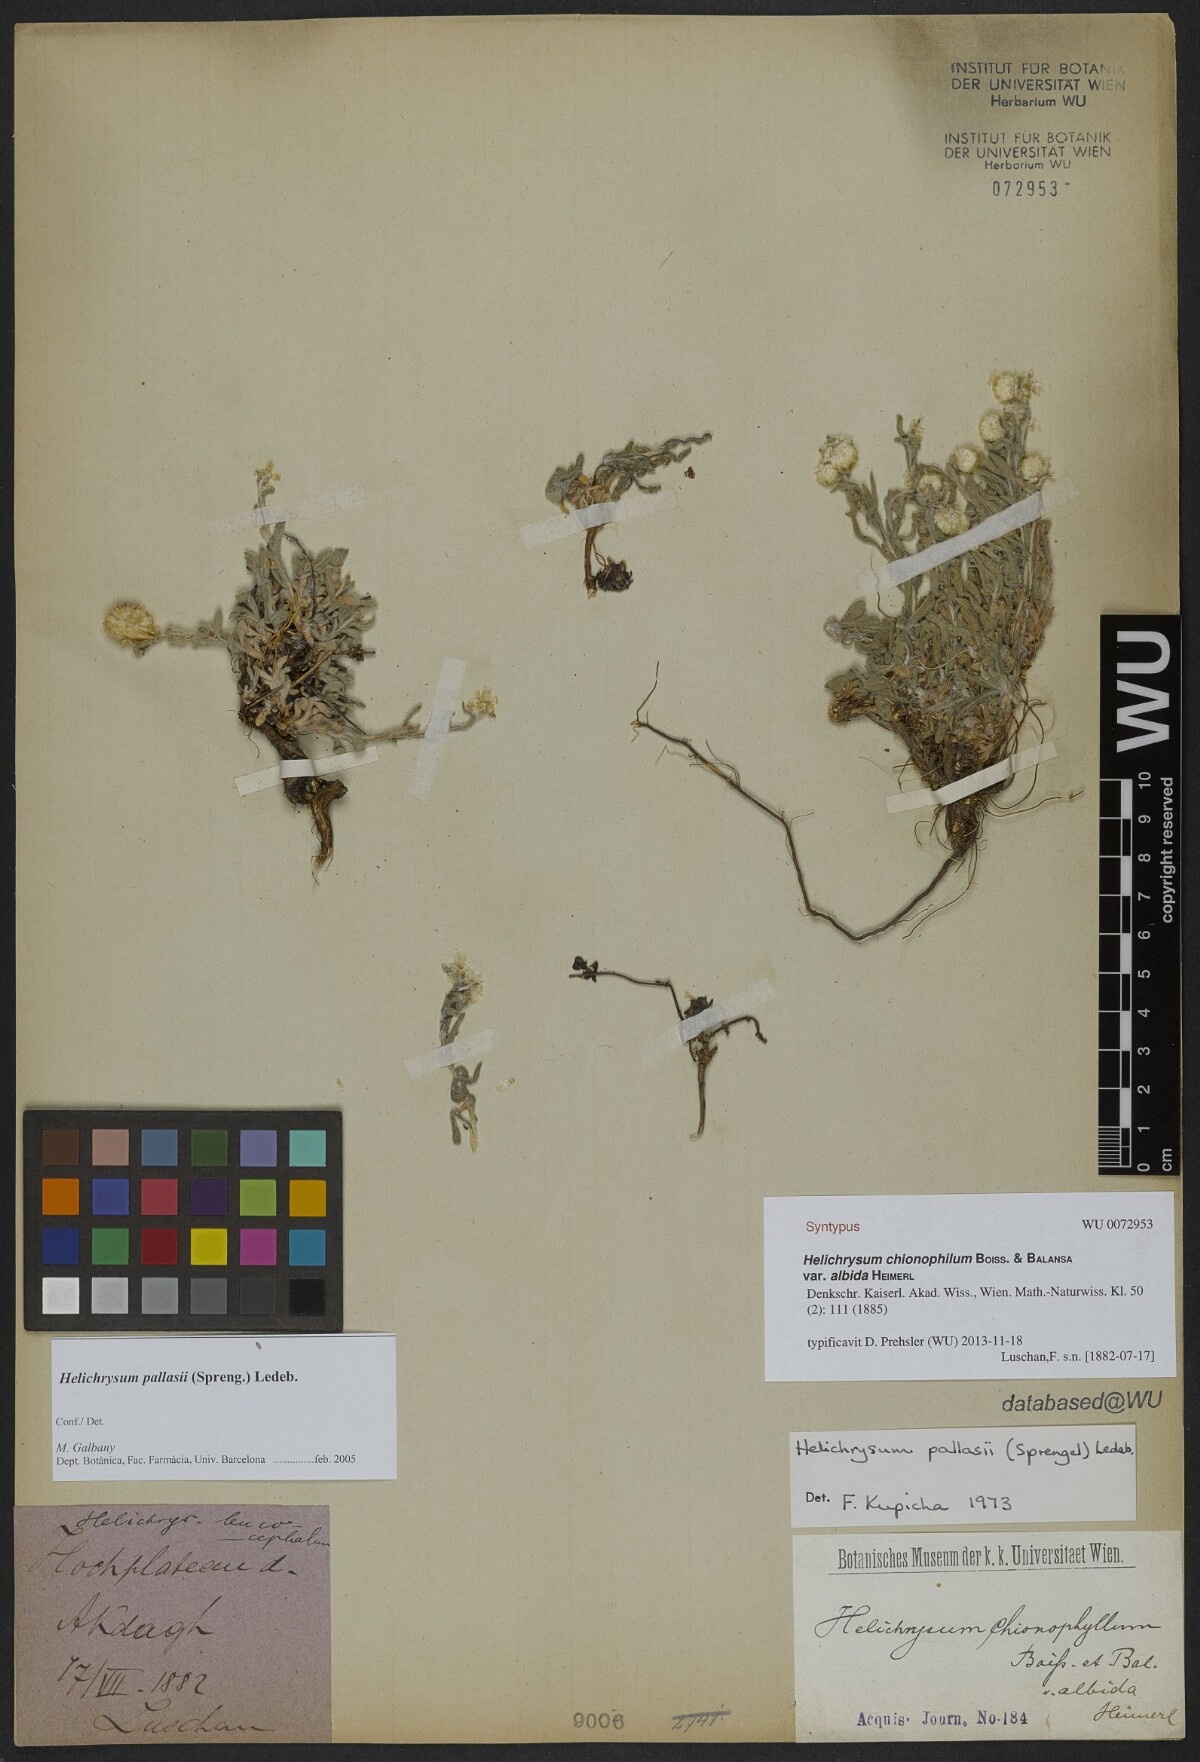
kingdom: Plantae
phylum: Tracheophyta
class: Magnoliopsida
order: Asterales
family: Asteraceae
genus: Helichrysum
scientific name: Helichrysum psychrophilum
